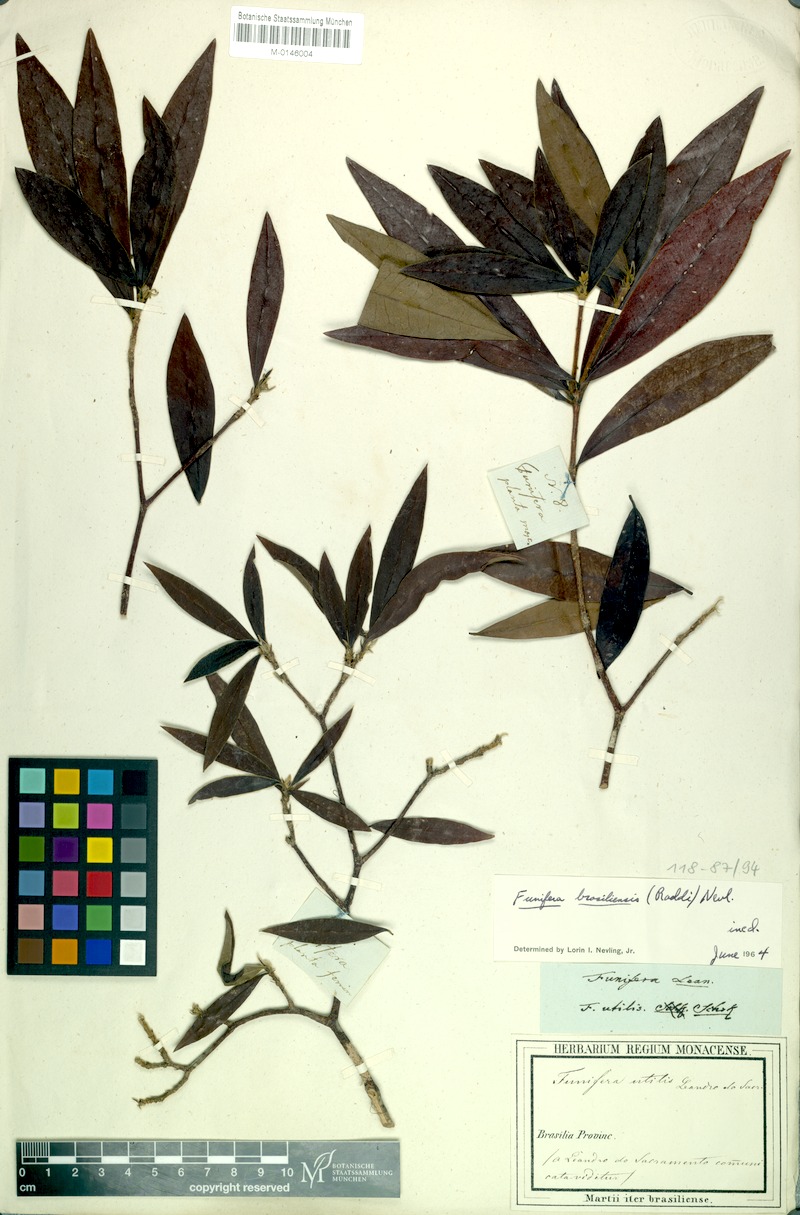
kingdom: Plantae
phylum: Tracheophyta
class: Magnoliopsida
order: Malvales
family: Thymelaeaceae
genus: Funifera
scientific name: Funifera brasiliensis
